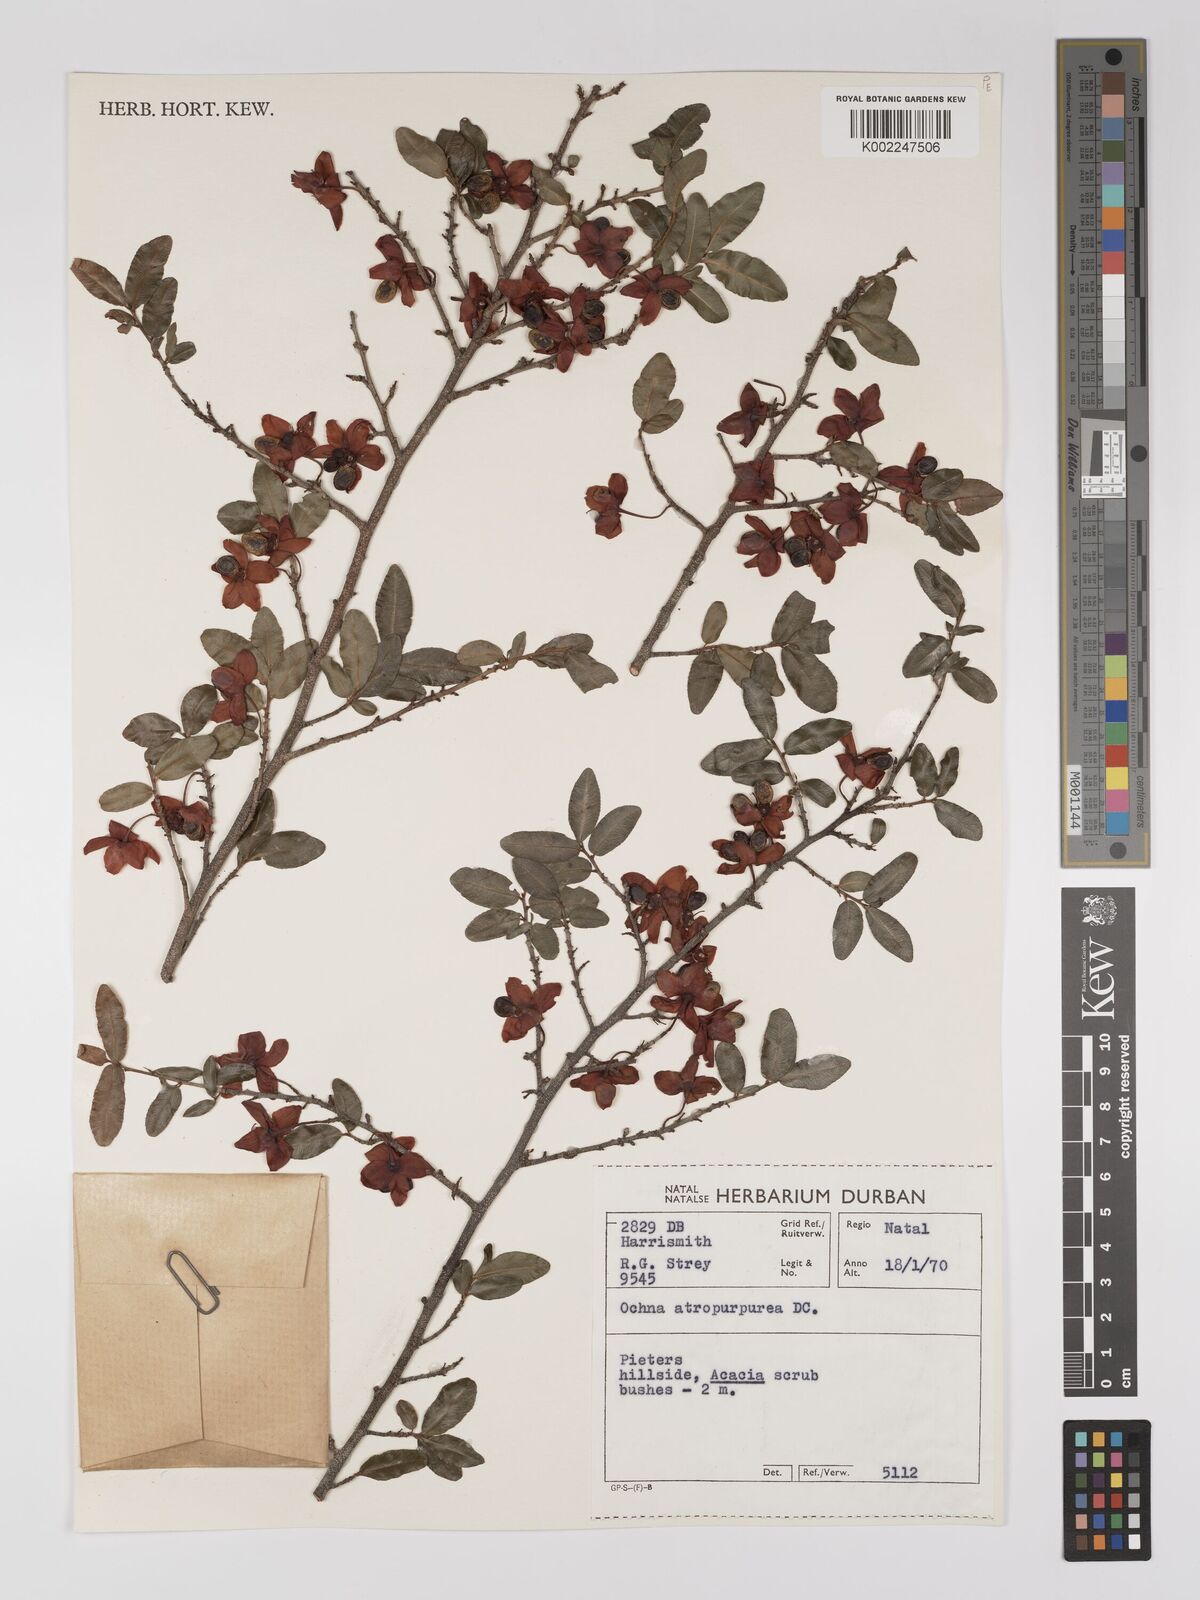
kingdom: Plantae
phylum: Tracheophyta
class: Magnoliopsida
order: Malpighiales
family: Ochnaceae
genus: Ochna
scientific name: Ochna serrulata
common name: Mickey mouse plant
